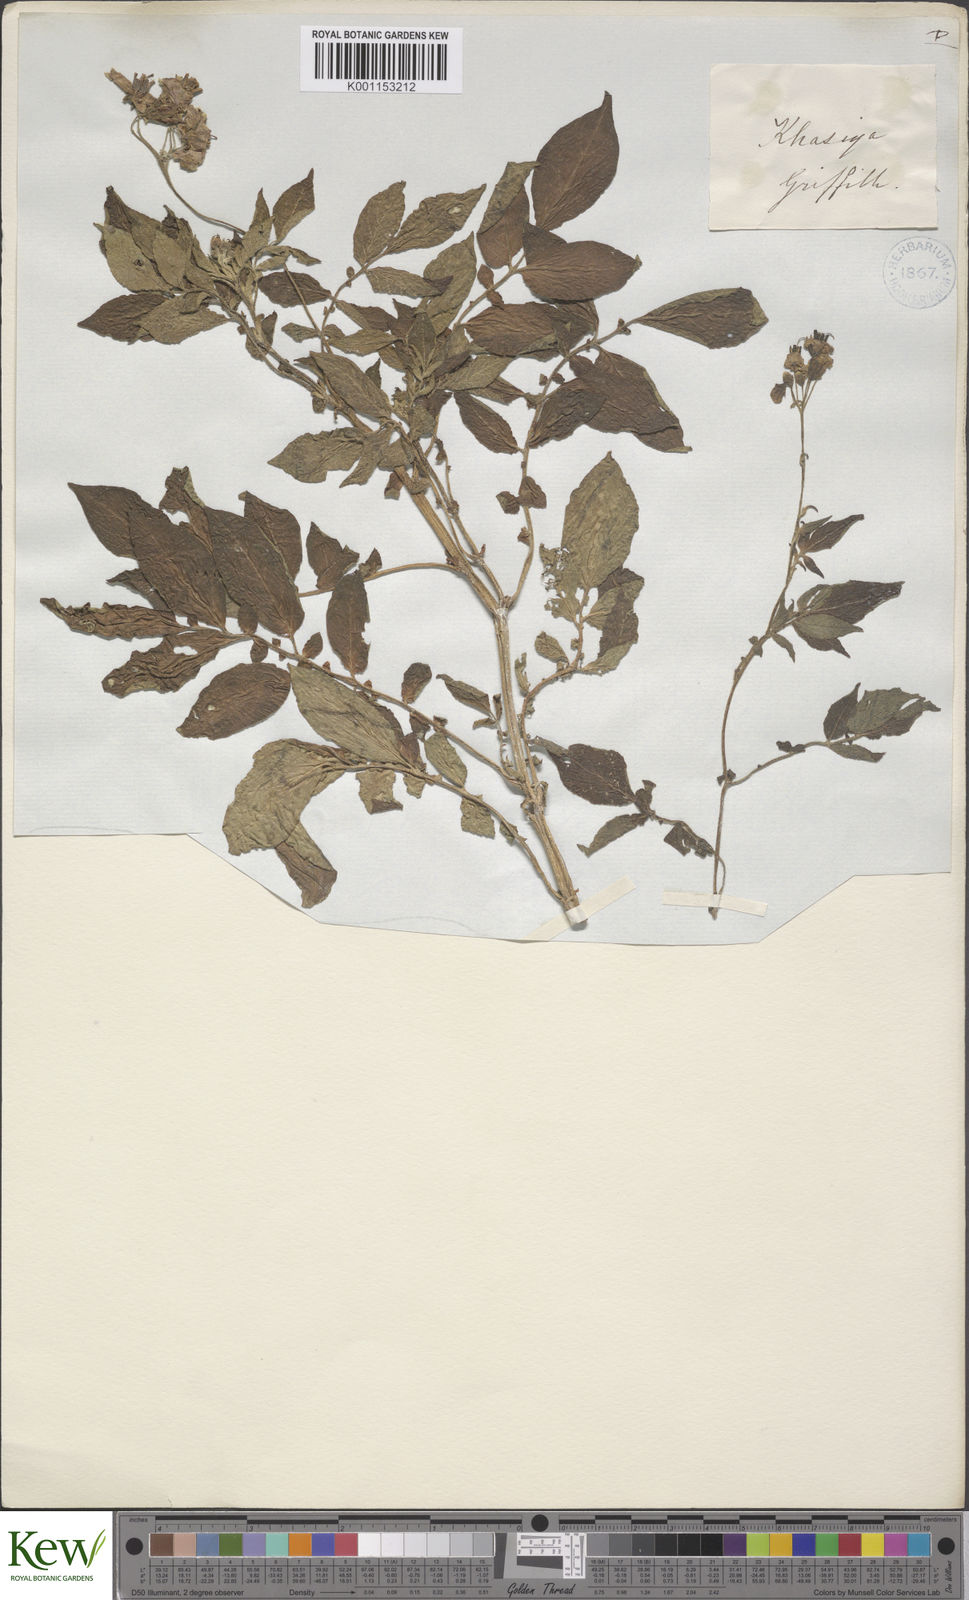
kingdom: Plantae
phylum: Tracheophyta
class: Magnoliopsida
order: Solanales
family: Solanaceae
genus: Solanum
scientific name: Solanum tuberosum
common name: Potato
